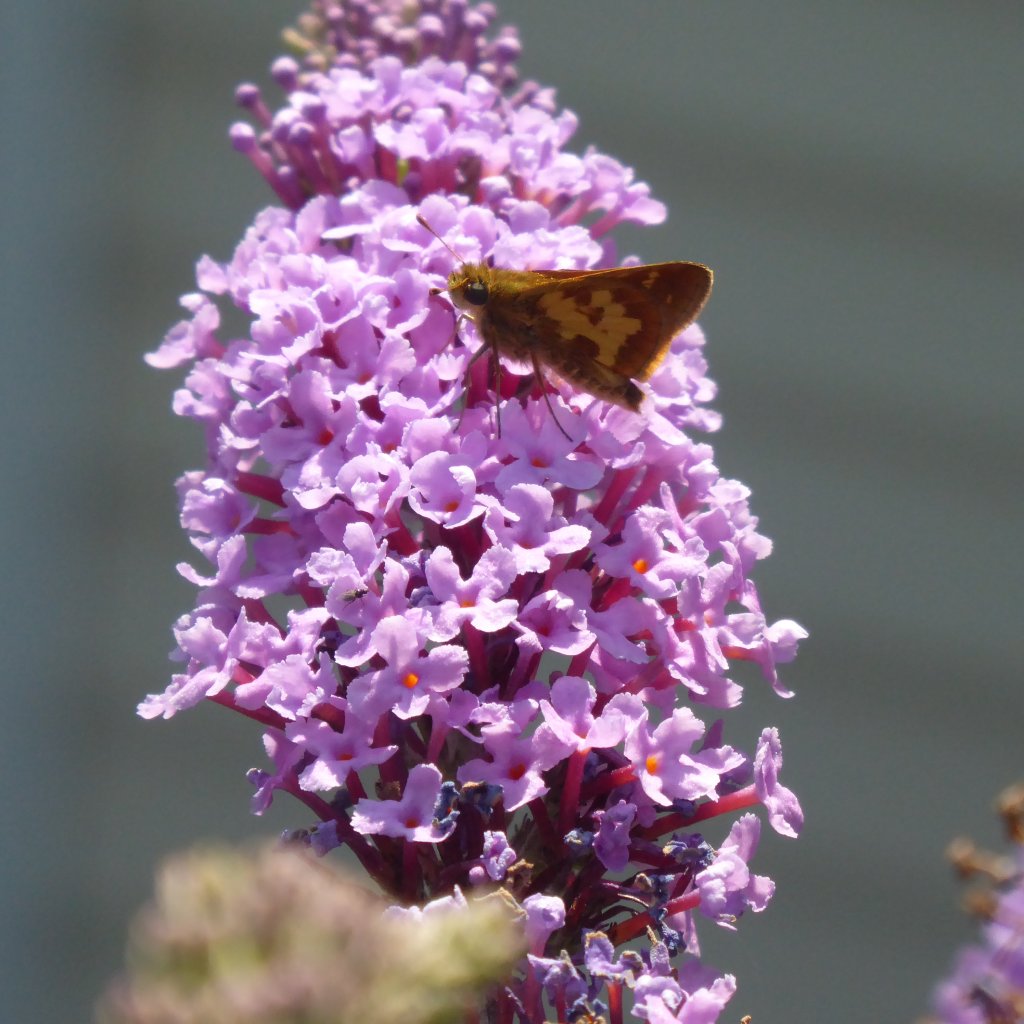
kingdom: Animalia
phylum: Arthropoda
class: Insecta
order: Lepidoptera
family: Hesperiidae
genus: Polites
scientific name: Polites coras
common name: Peck's Skipper
